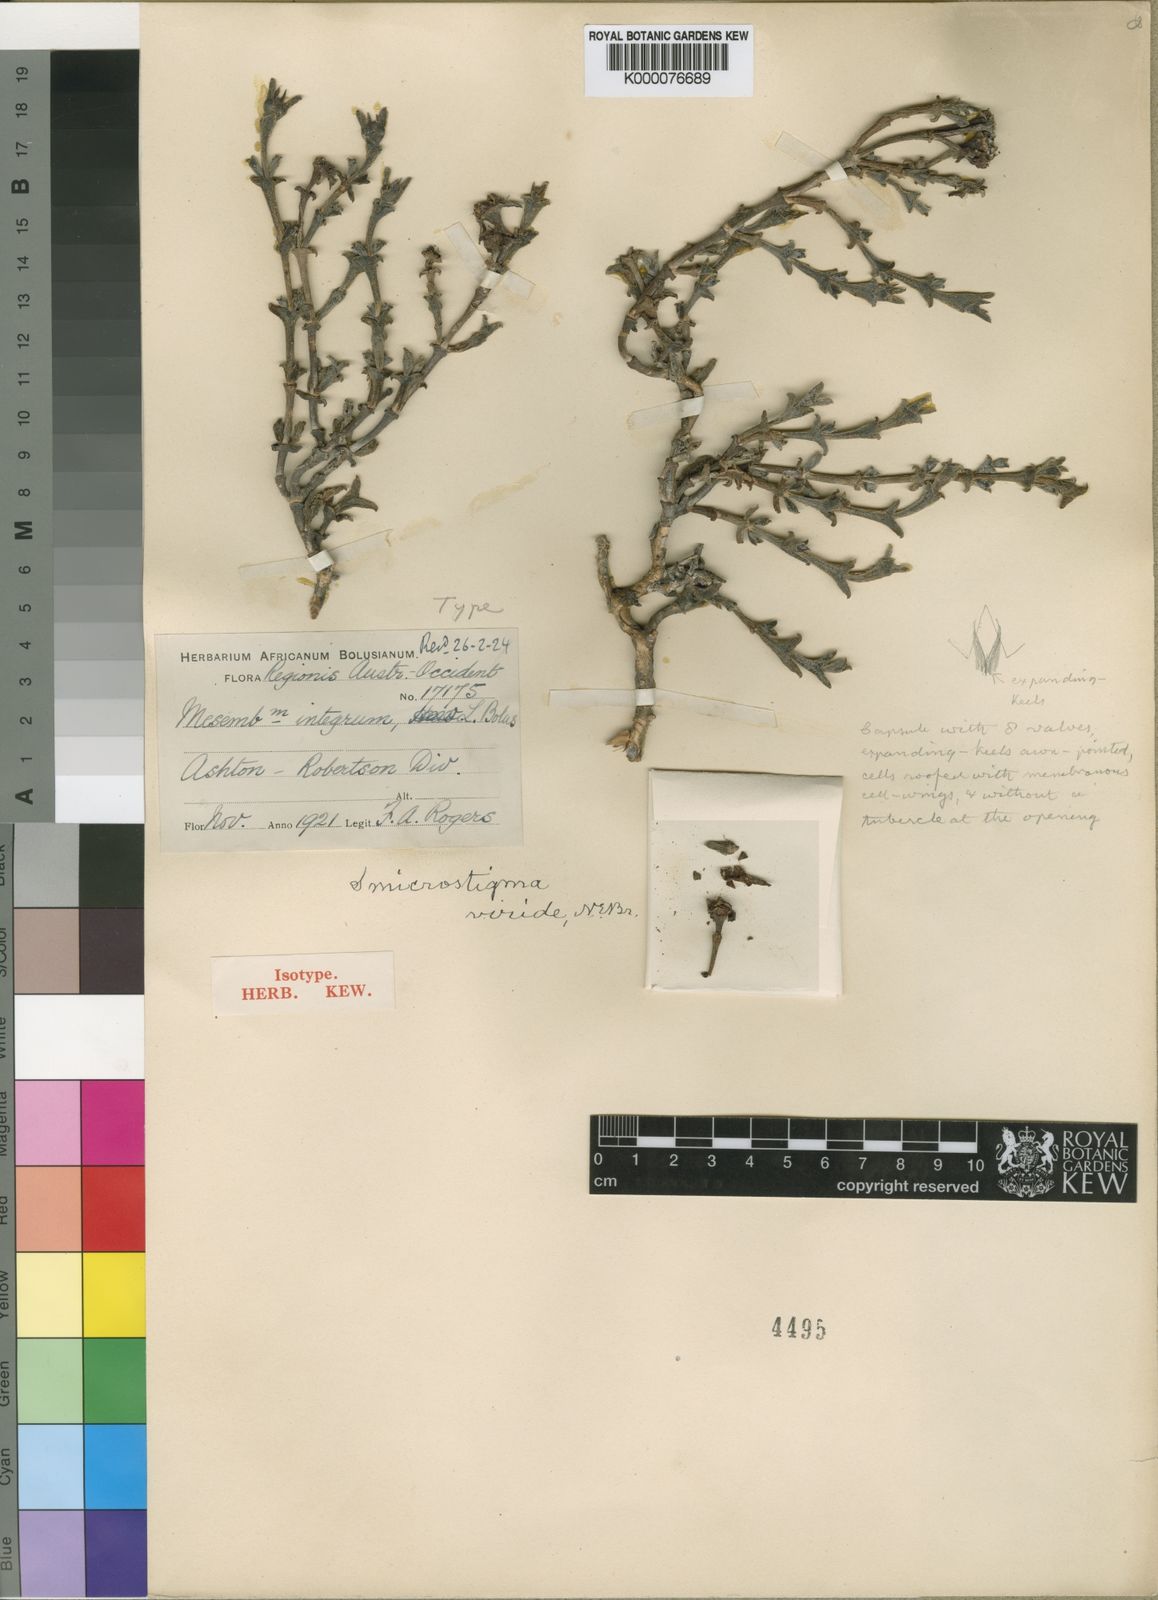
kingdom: Plantae
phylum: Tracheophyta
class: Magnoliopsida
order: Caryophyllales
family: Aizoaceae
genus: Smicrostigma
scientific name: Smicrostigma viride
